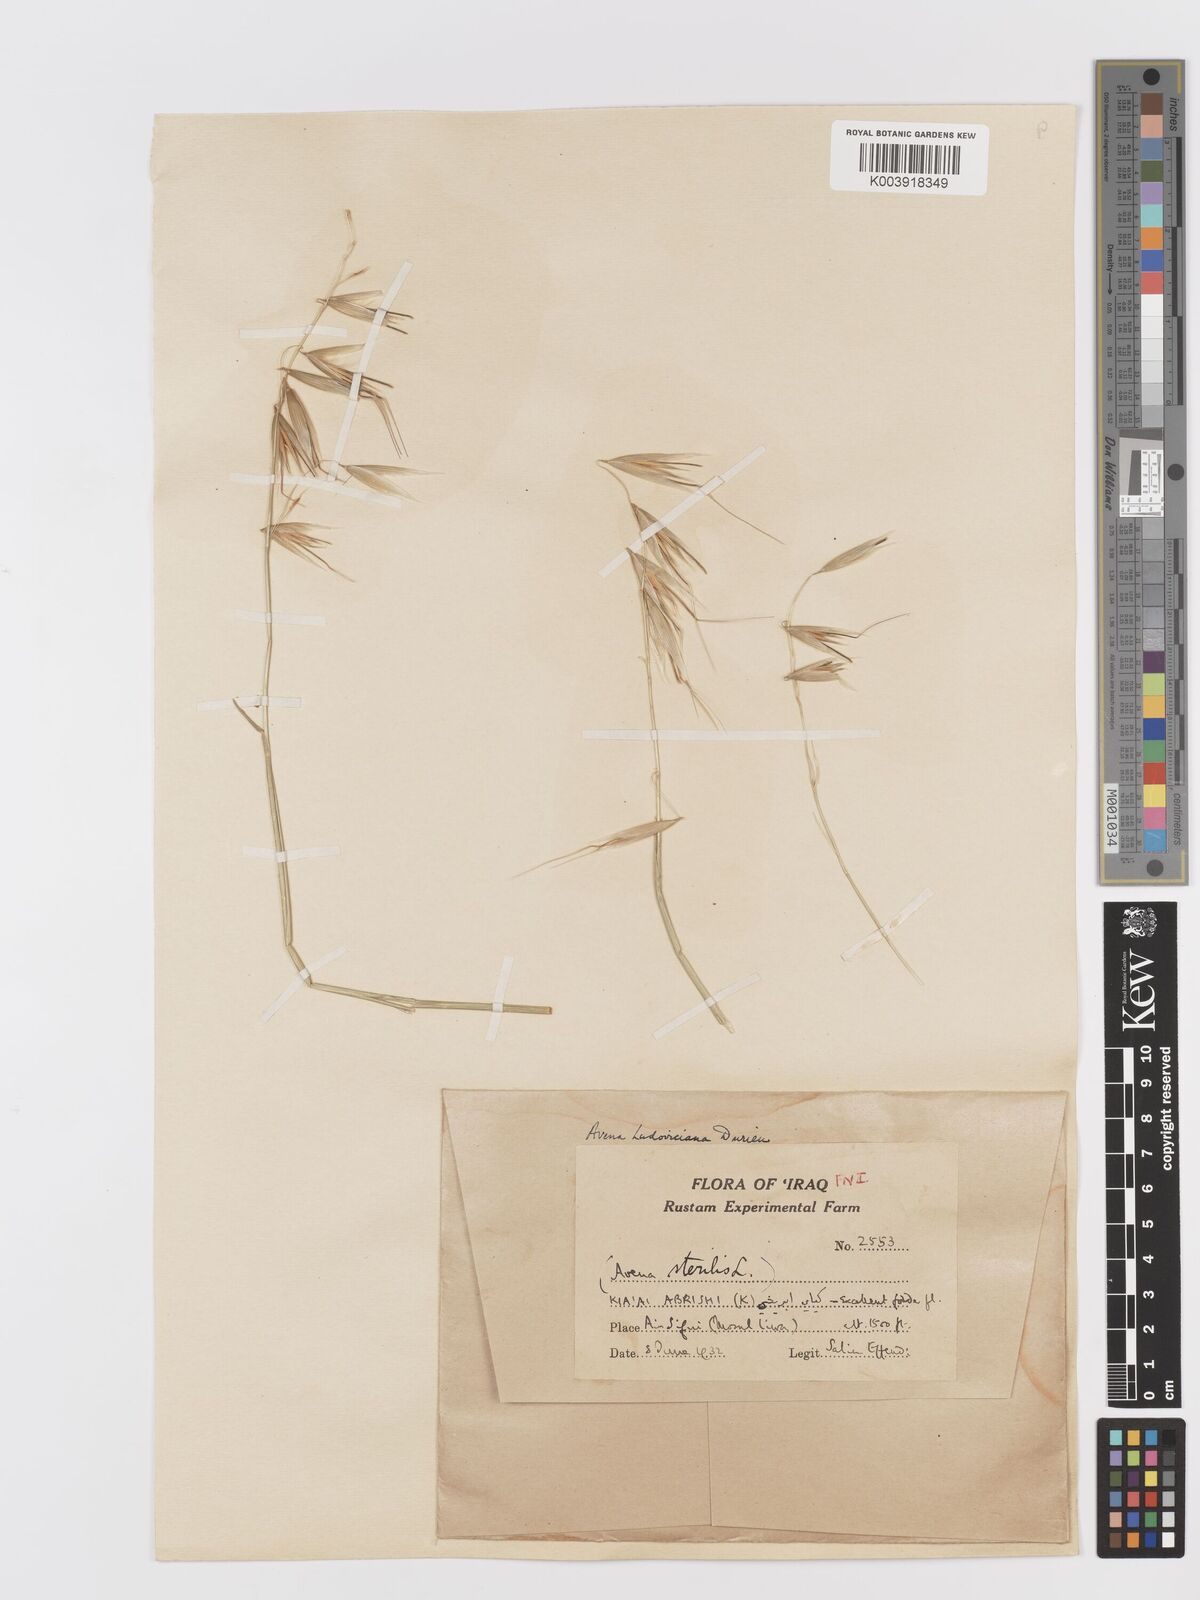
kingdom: Plantae
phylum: Tracheophyta
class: Liliopsida
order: Poales
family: Poaceae
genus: Avena
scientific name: Avena sterilis
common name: Animated oat
